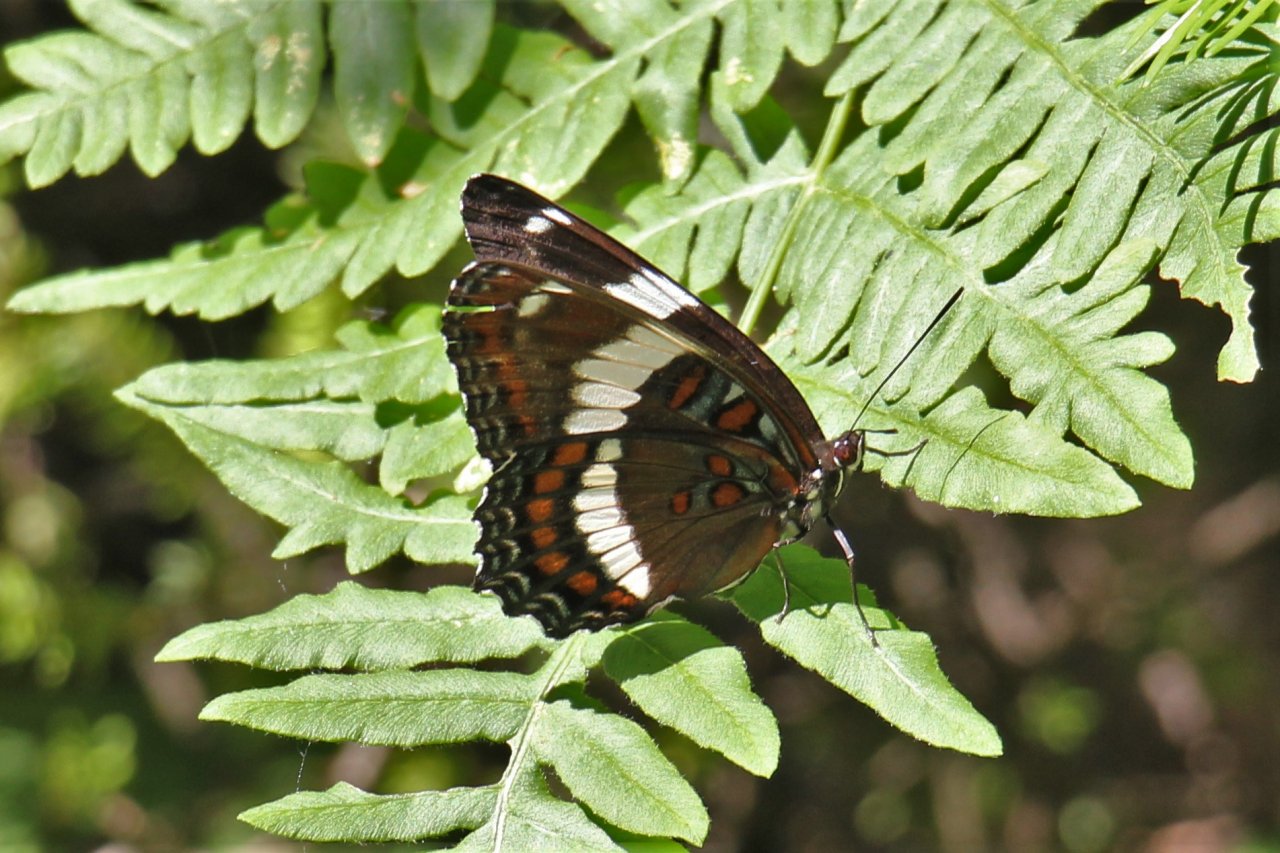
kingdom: Animalia
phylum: Arthropoda
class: Insecta
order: Lepidoptera
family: Nymphalidae
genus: Limenitis
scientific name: Limenitis arthemis
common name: Red-spotted Admiral
